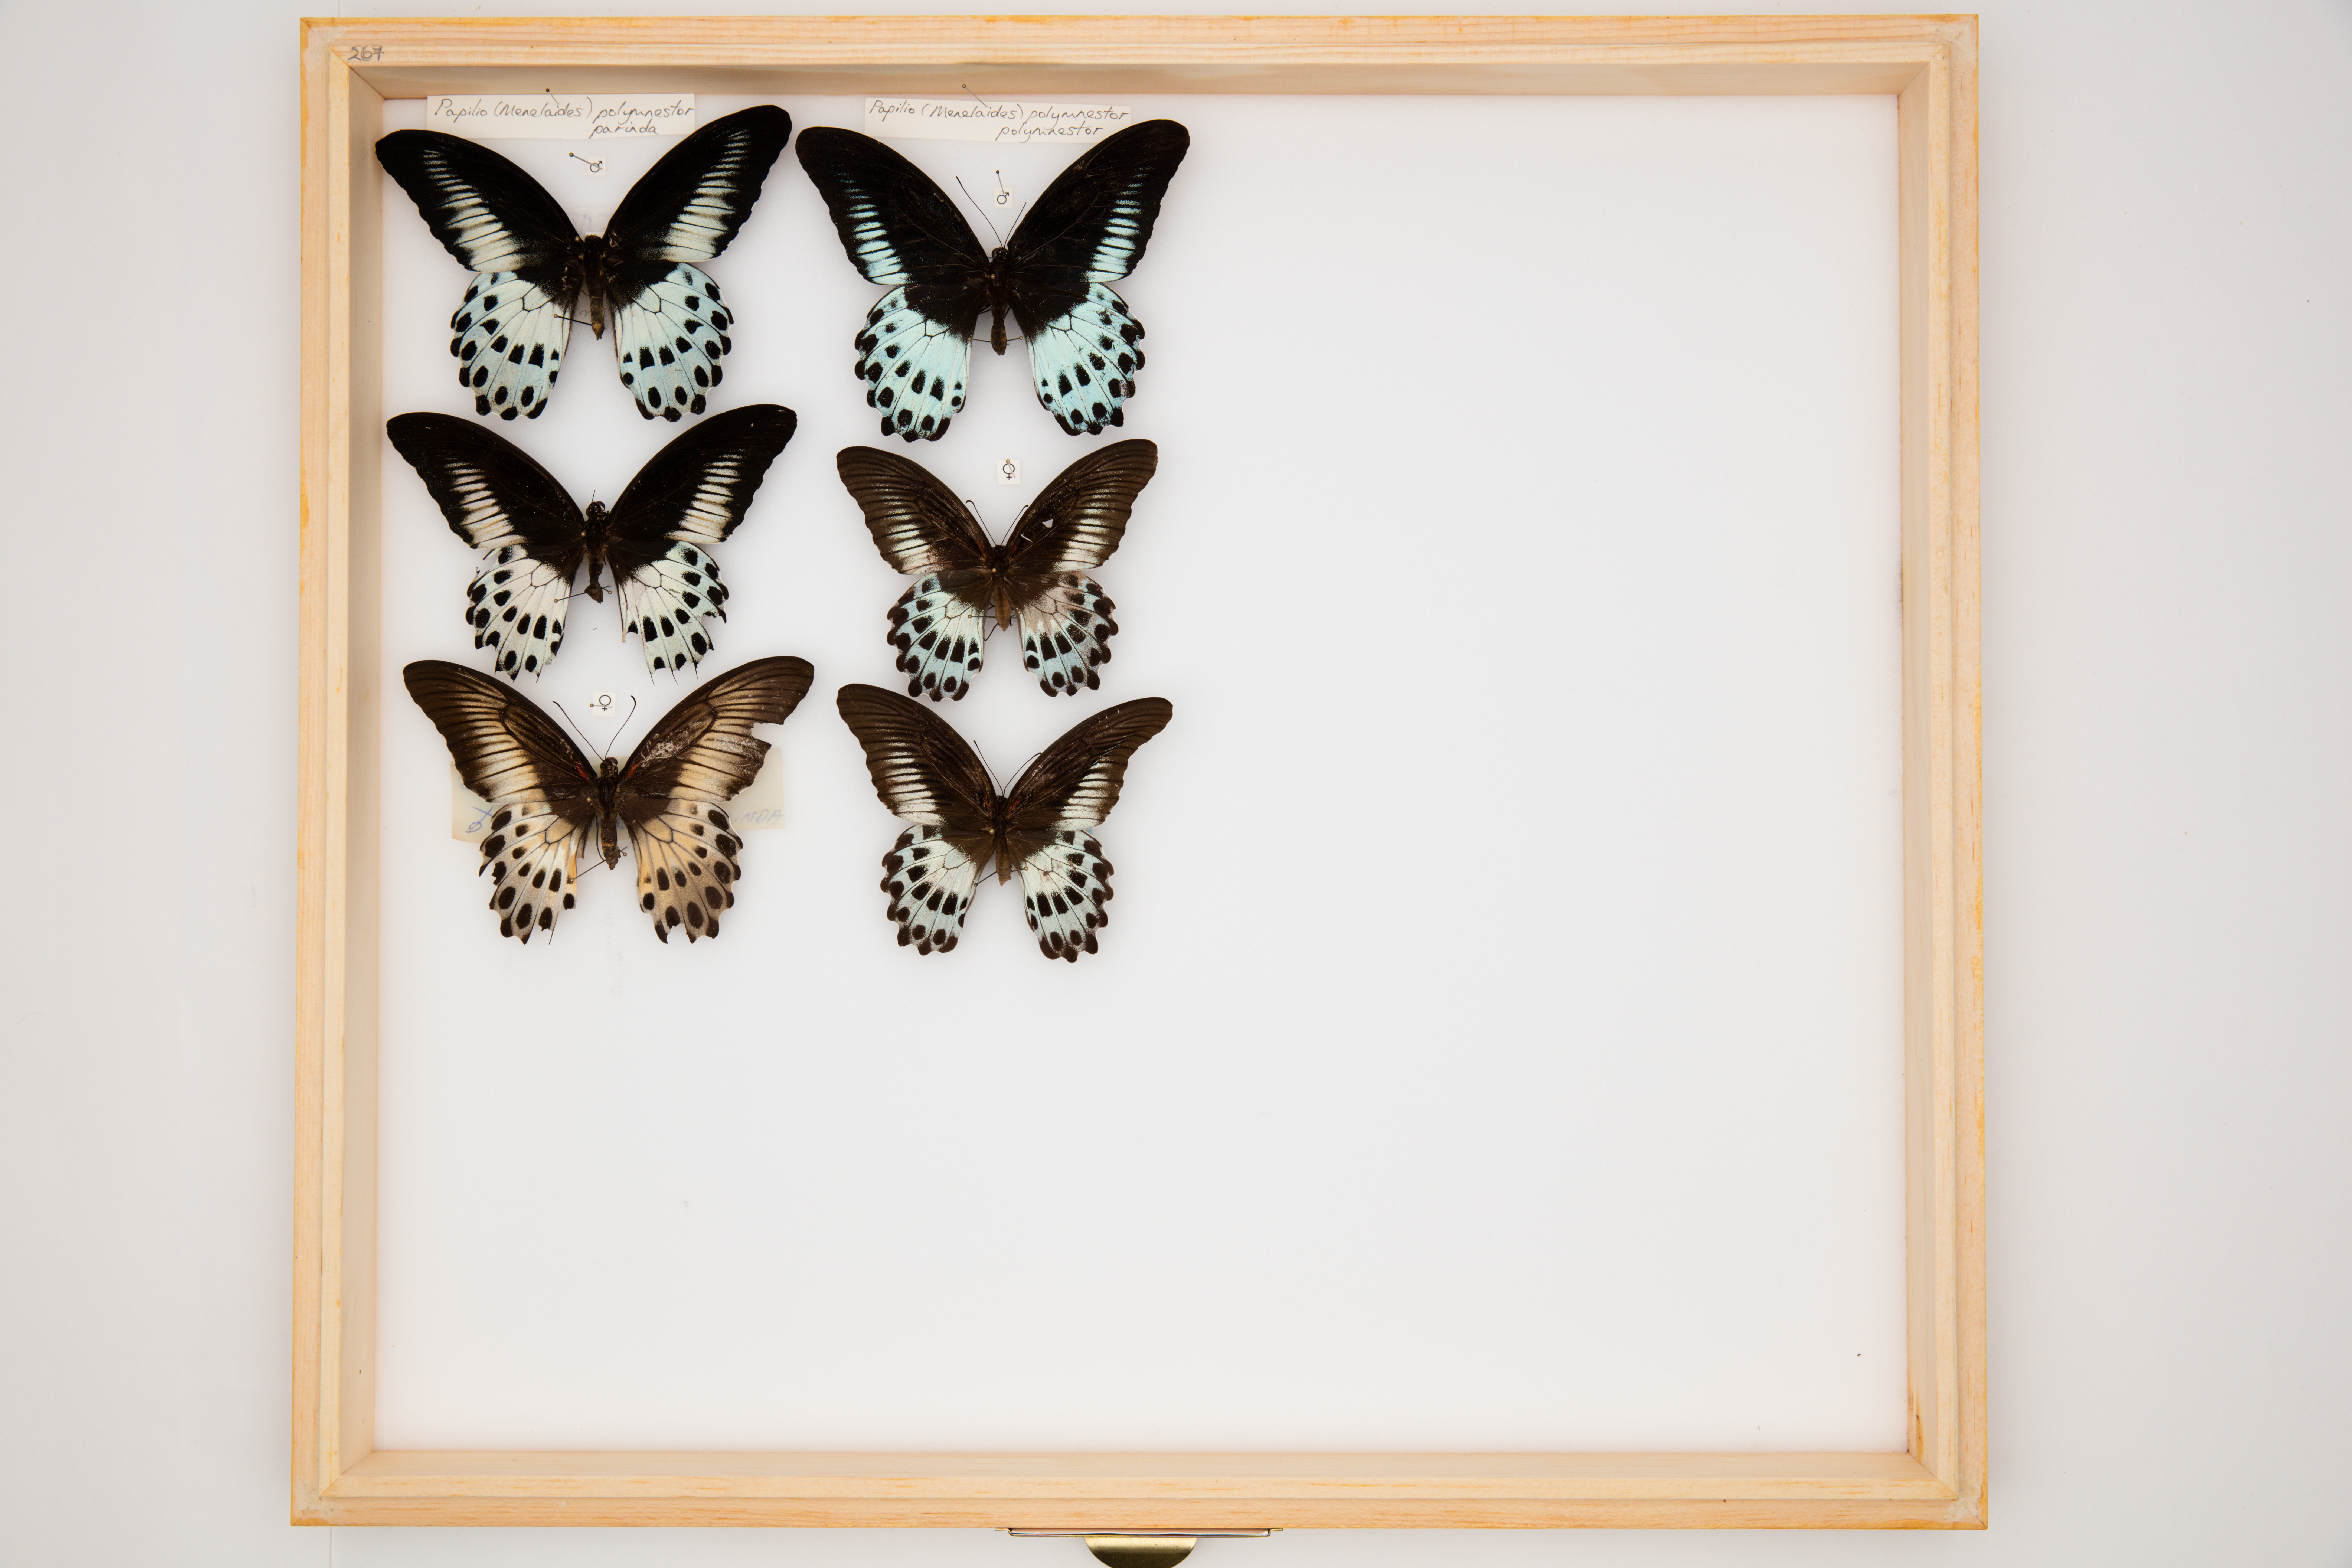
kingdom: Animalia
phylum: Arthropoda
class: Insecta
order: Lepidoptera
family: Papilionidae
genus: Papilio
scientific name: Papilio polymnestor
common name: Blue mormon
